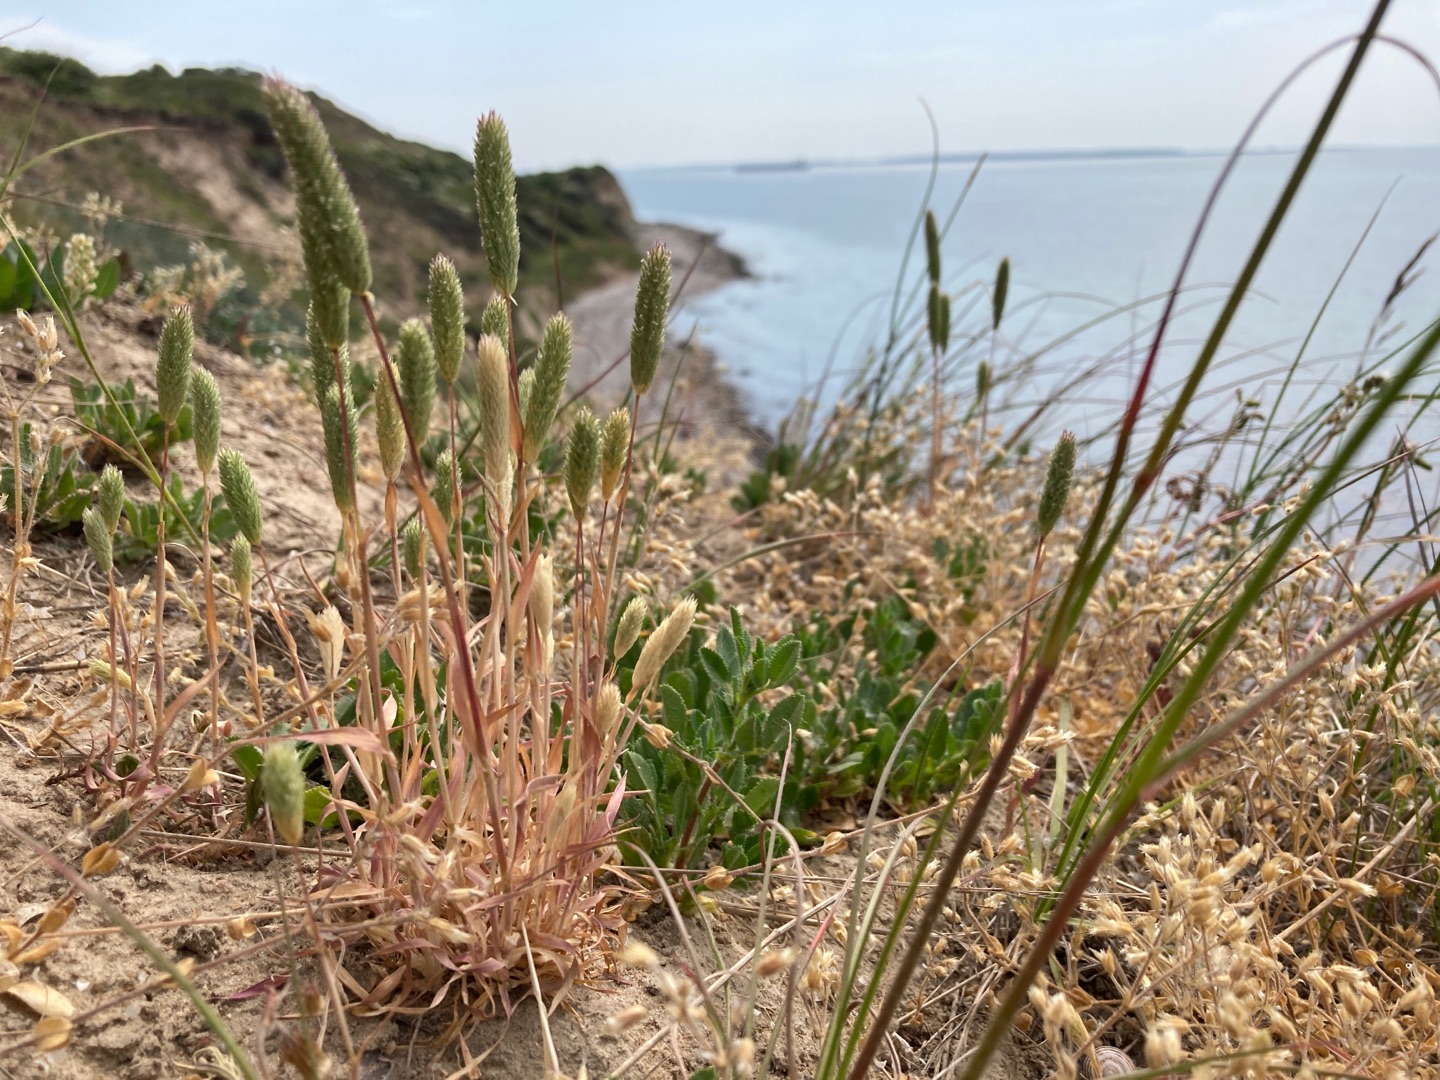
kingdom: Plantae
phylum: Tracheophyta
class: Liliopsida
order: Poales
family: Poaceae
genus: Phleum
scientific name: Phleum arenarium
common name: Sand-rottehale
